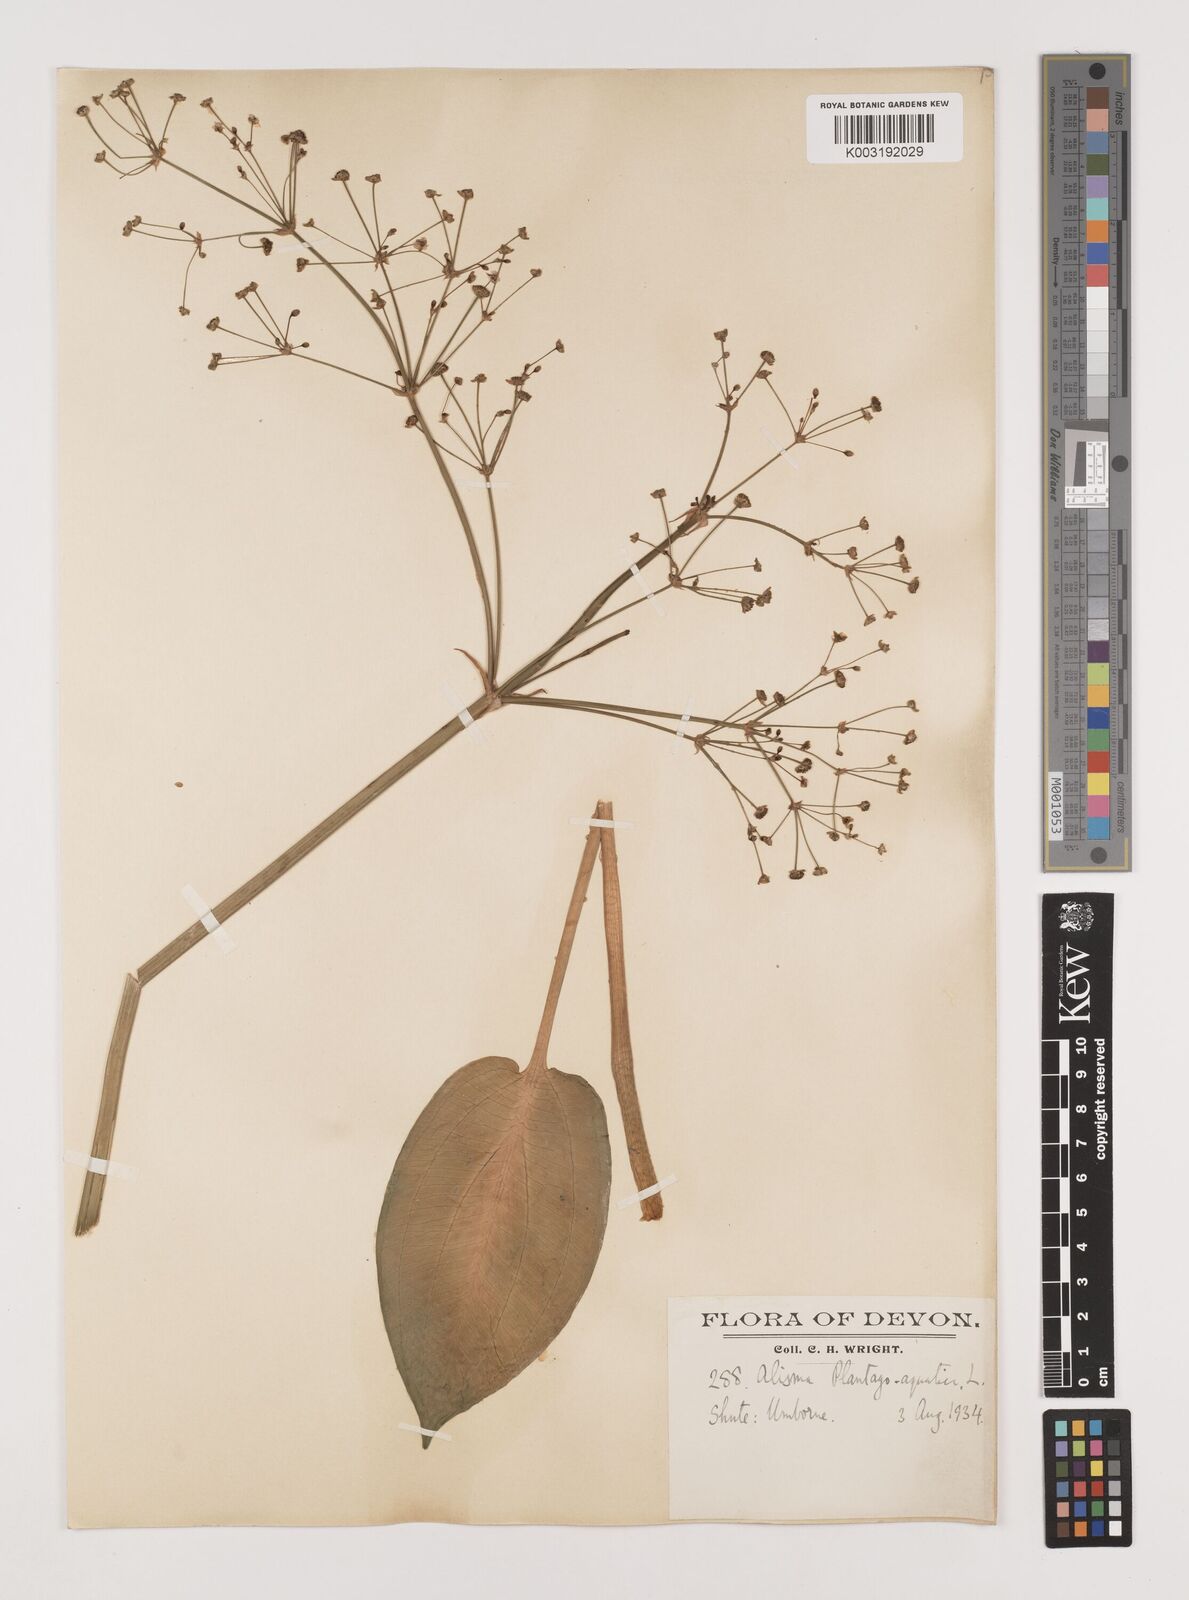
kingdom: Plantae
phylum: Tracheophyta
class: Liliopsida
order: Alismatales
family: Alismataceae
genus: Alisma
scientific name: Alisma plantago-aquatica
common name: Water-plantain
